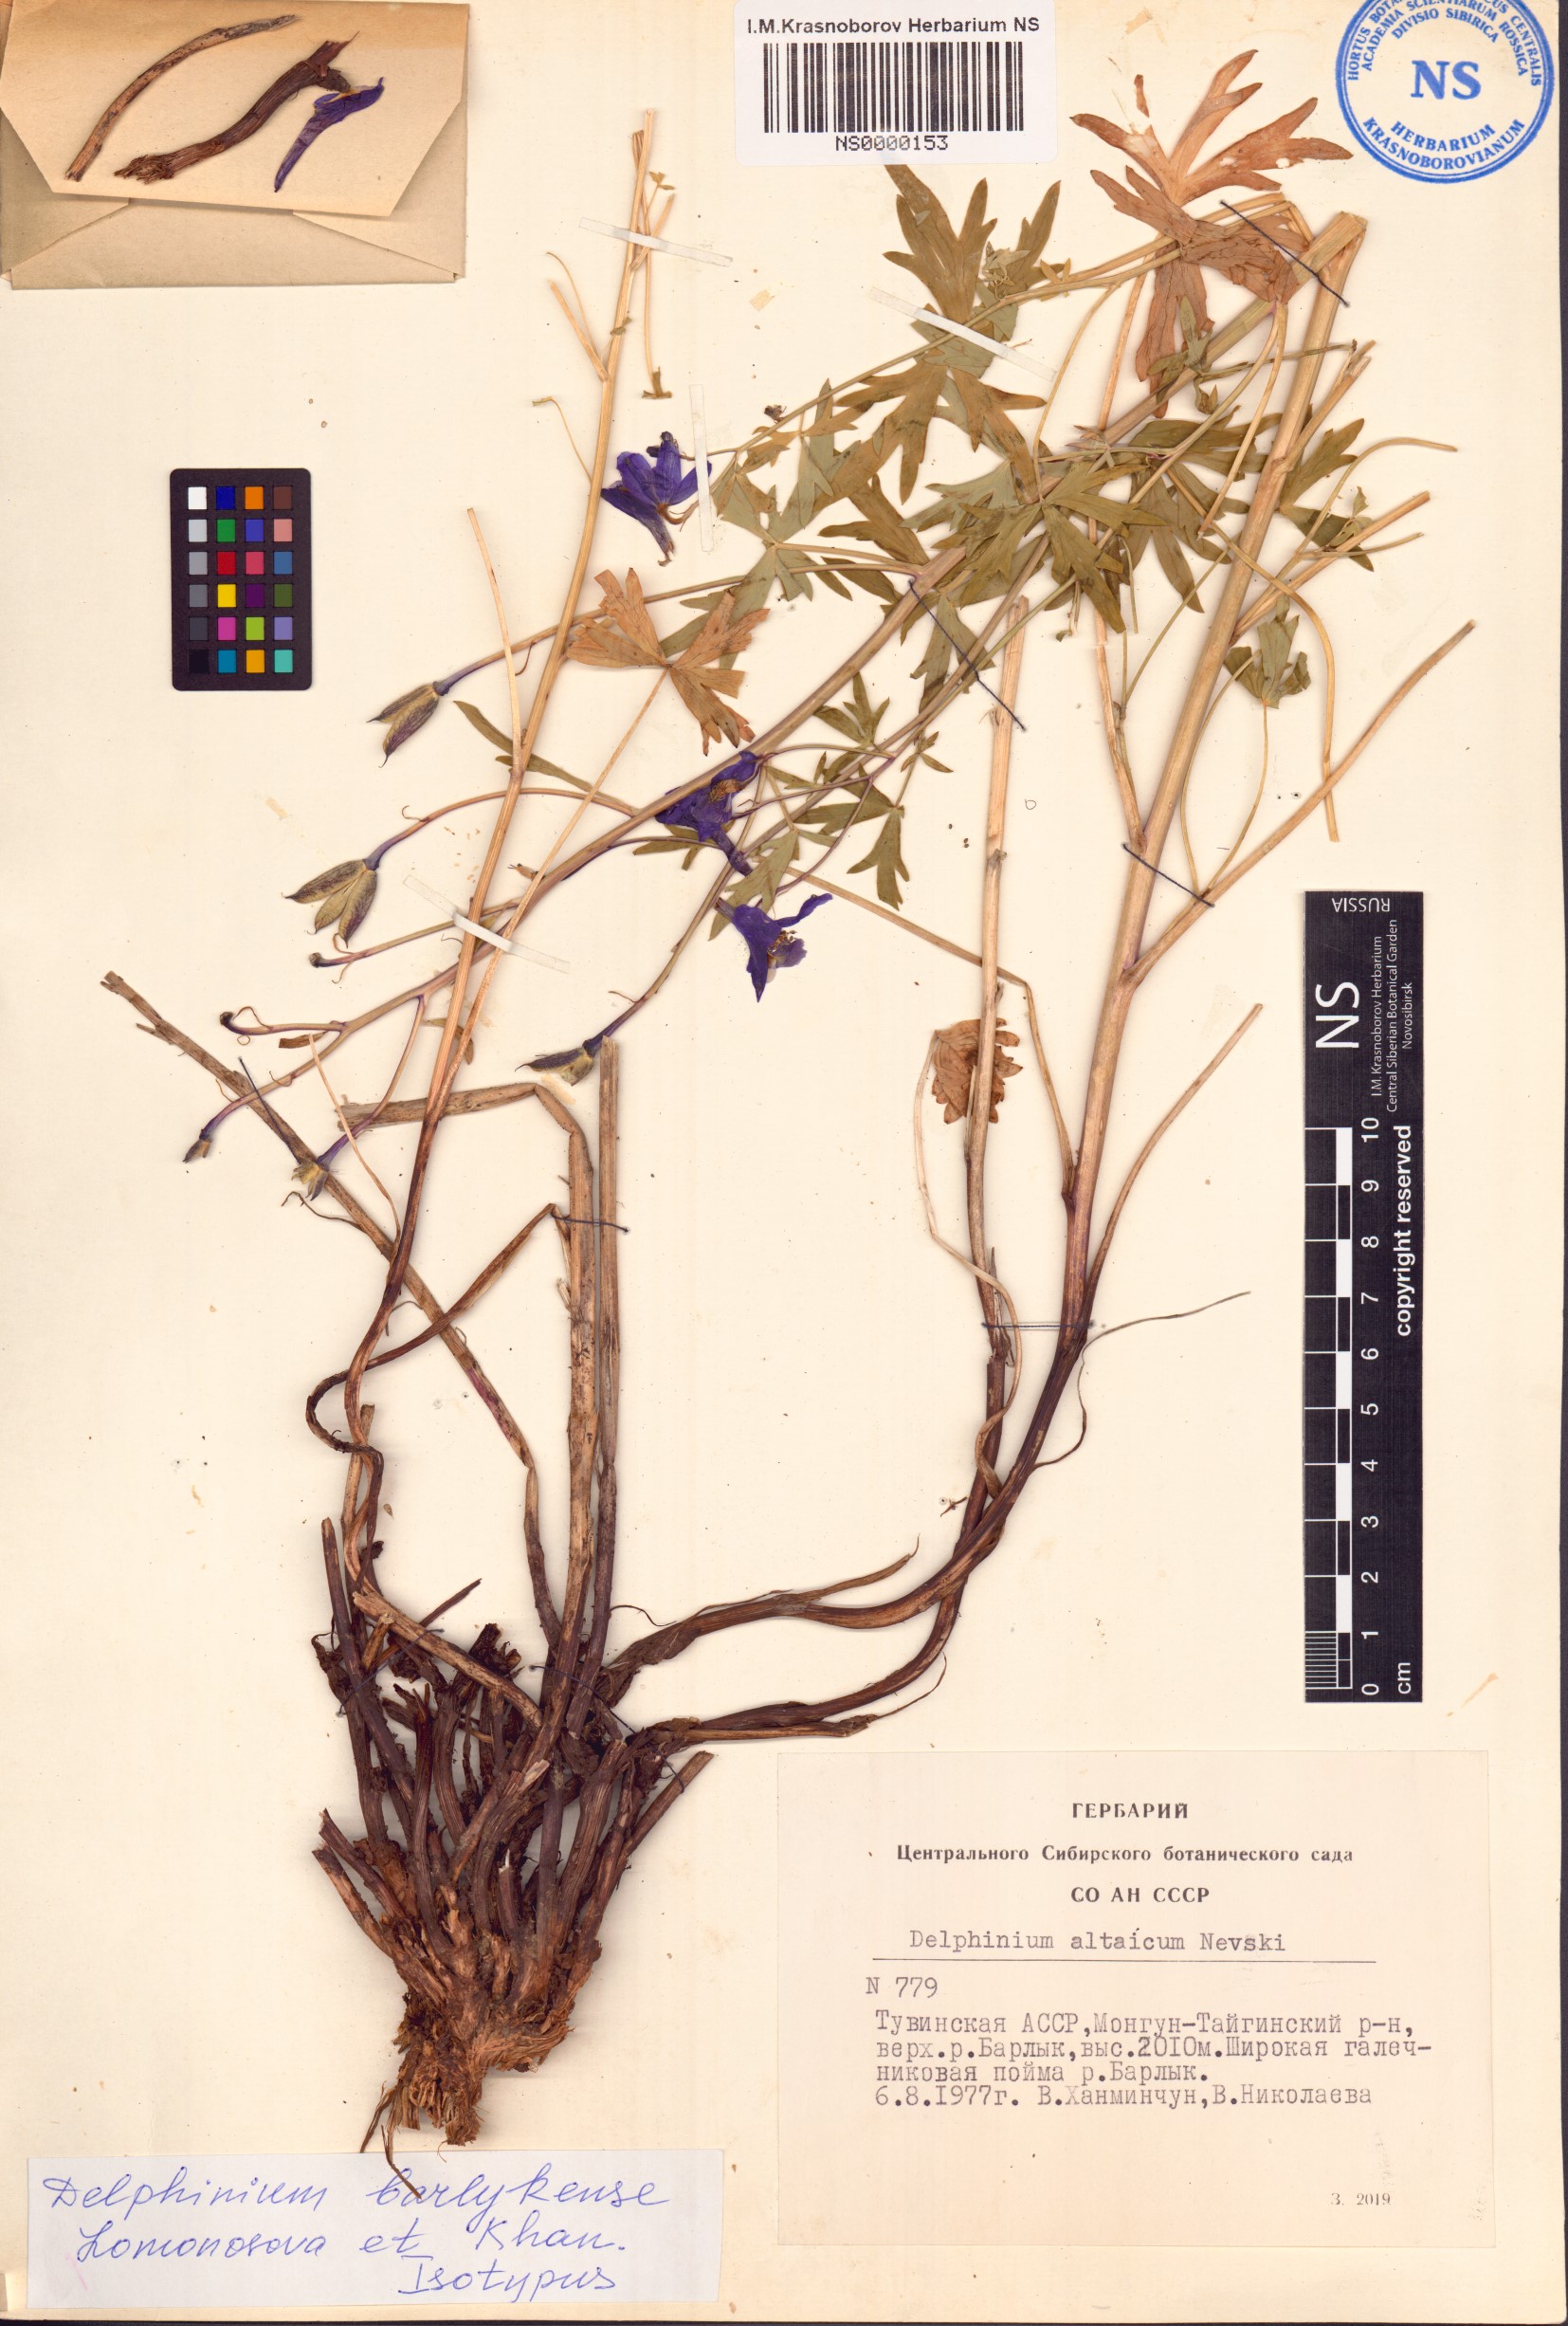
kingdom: Plantae
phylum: Tracheophyta
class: Magnoliopsida
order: Ranunculales
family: Ranunculaceae
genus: Delphinium
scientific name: Delphinium barlykense
